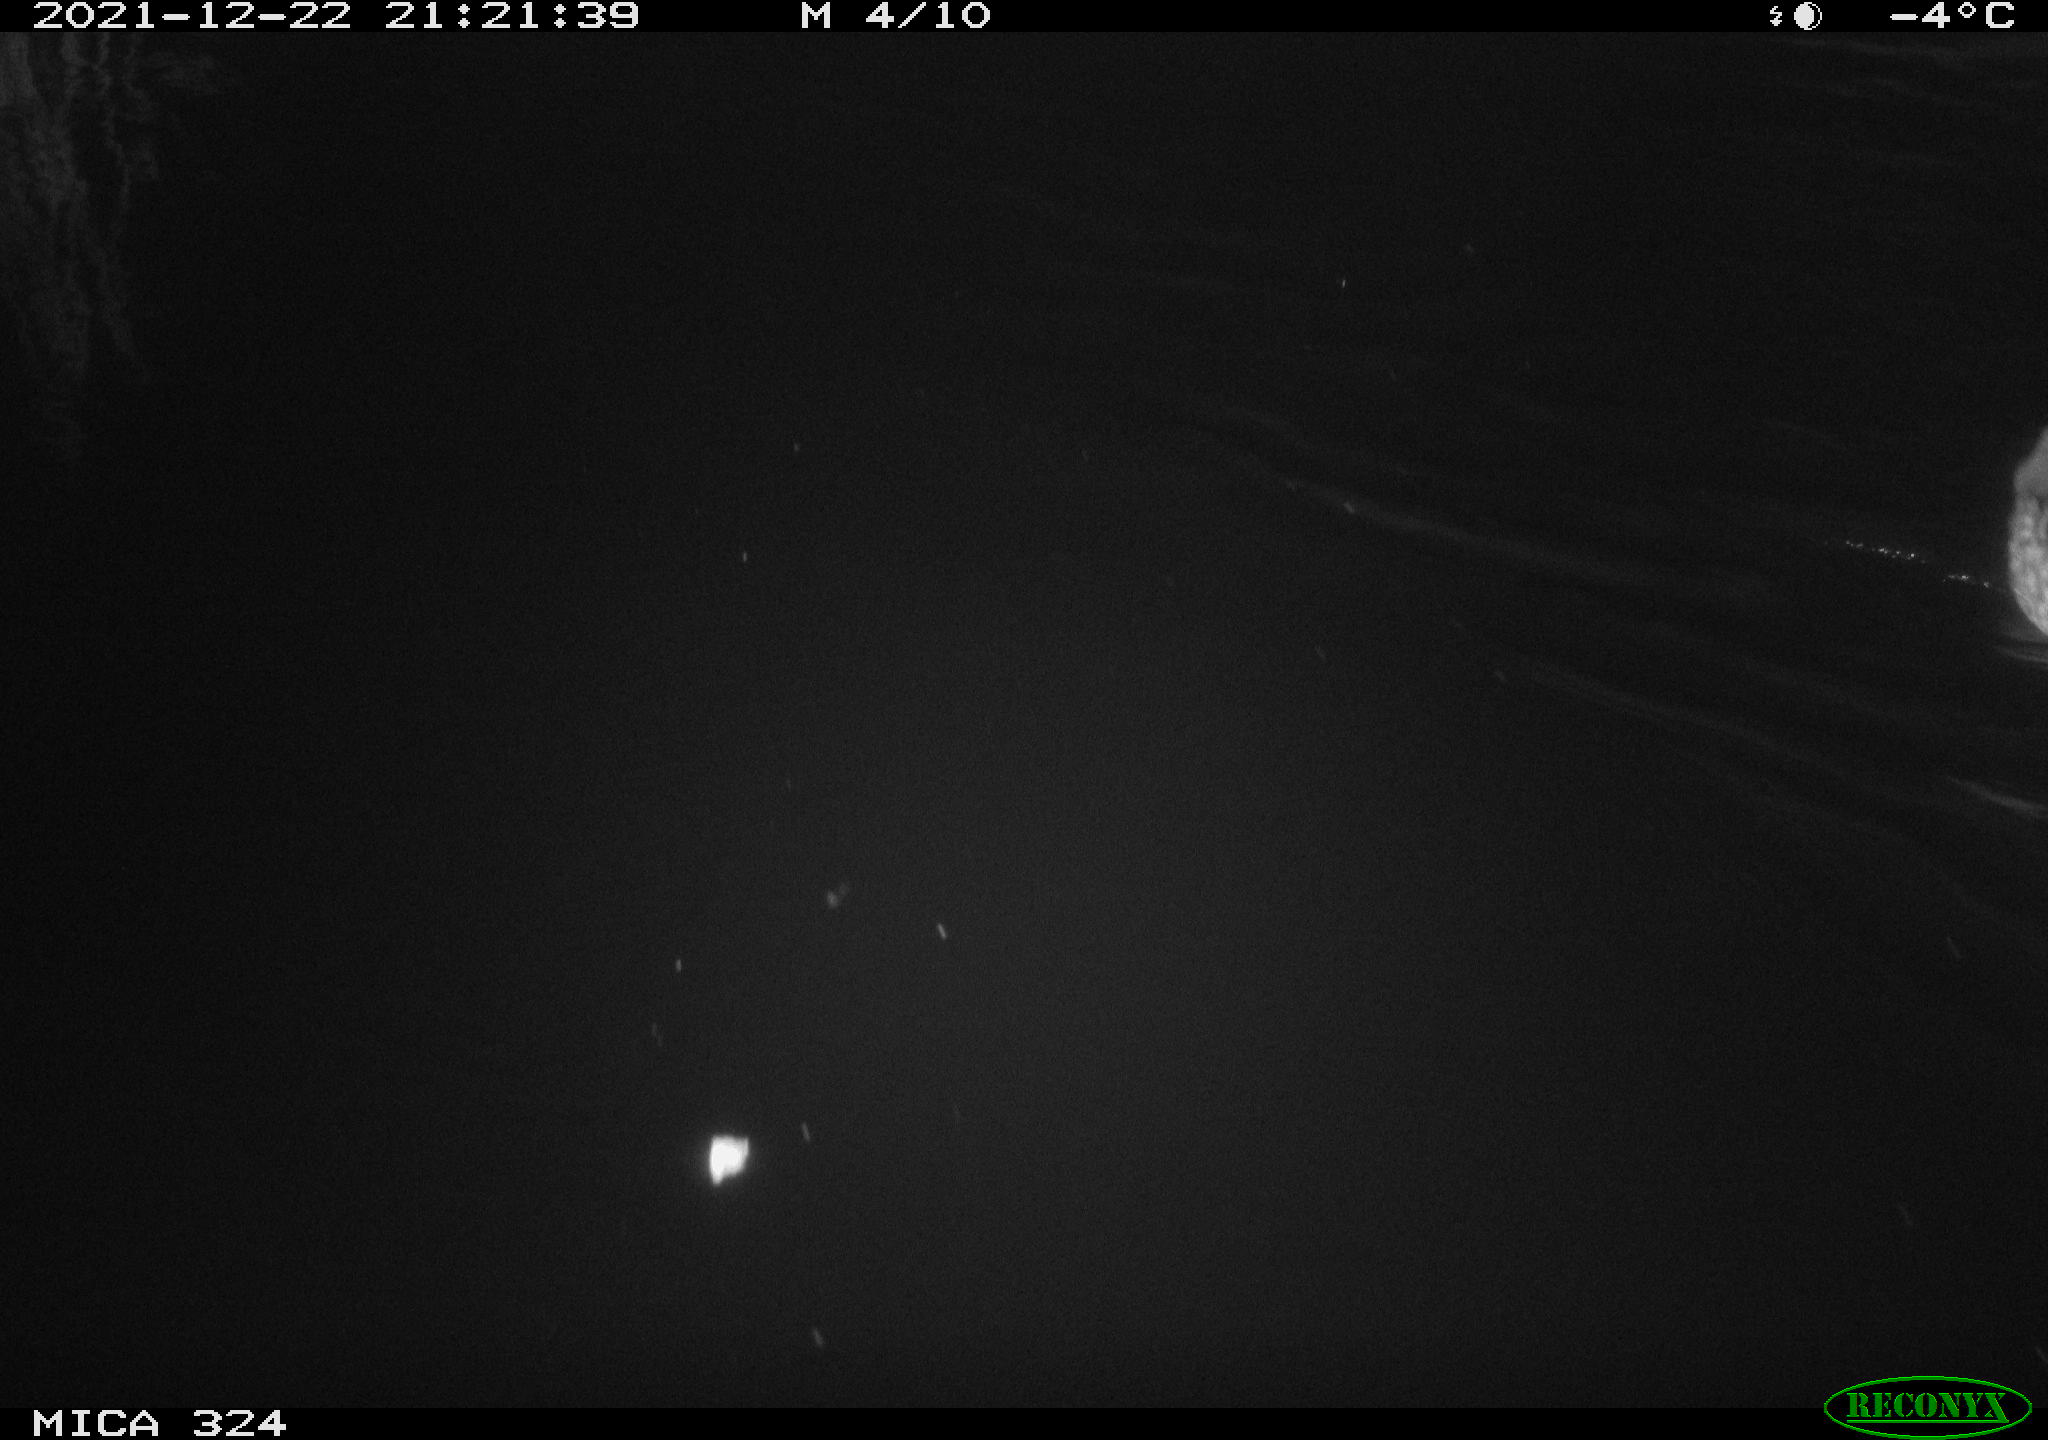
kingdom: Animalia
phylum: Chordata
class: Aves
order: Anseriformes
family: Anatidae
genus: Anas
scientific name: Anas platyrhynchos
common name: Mallard
